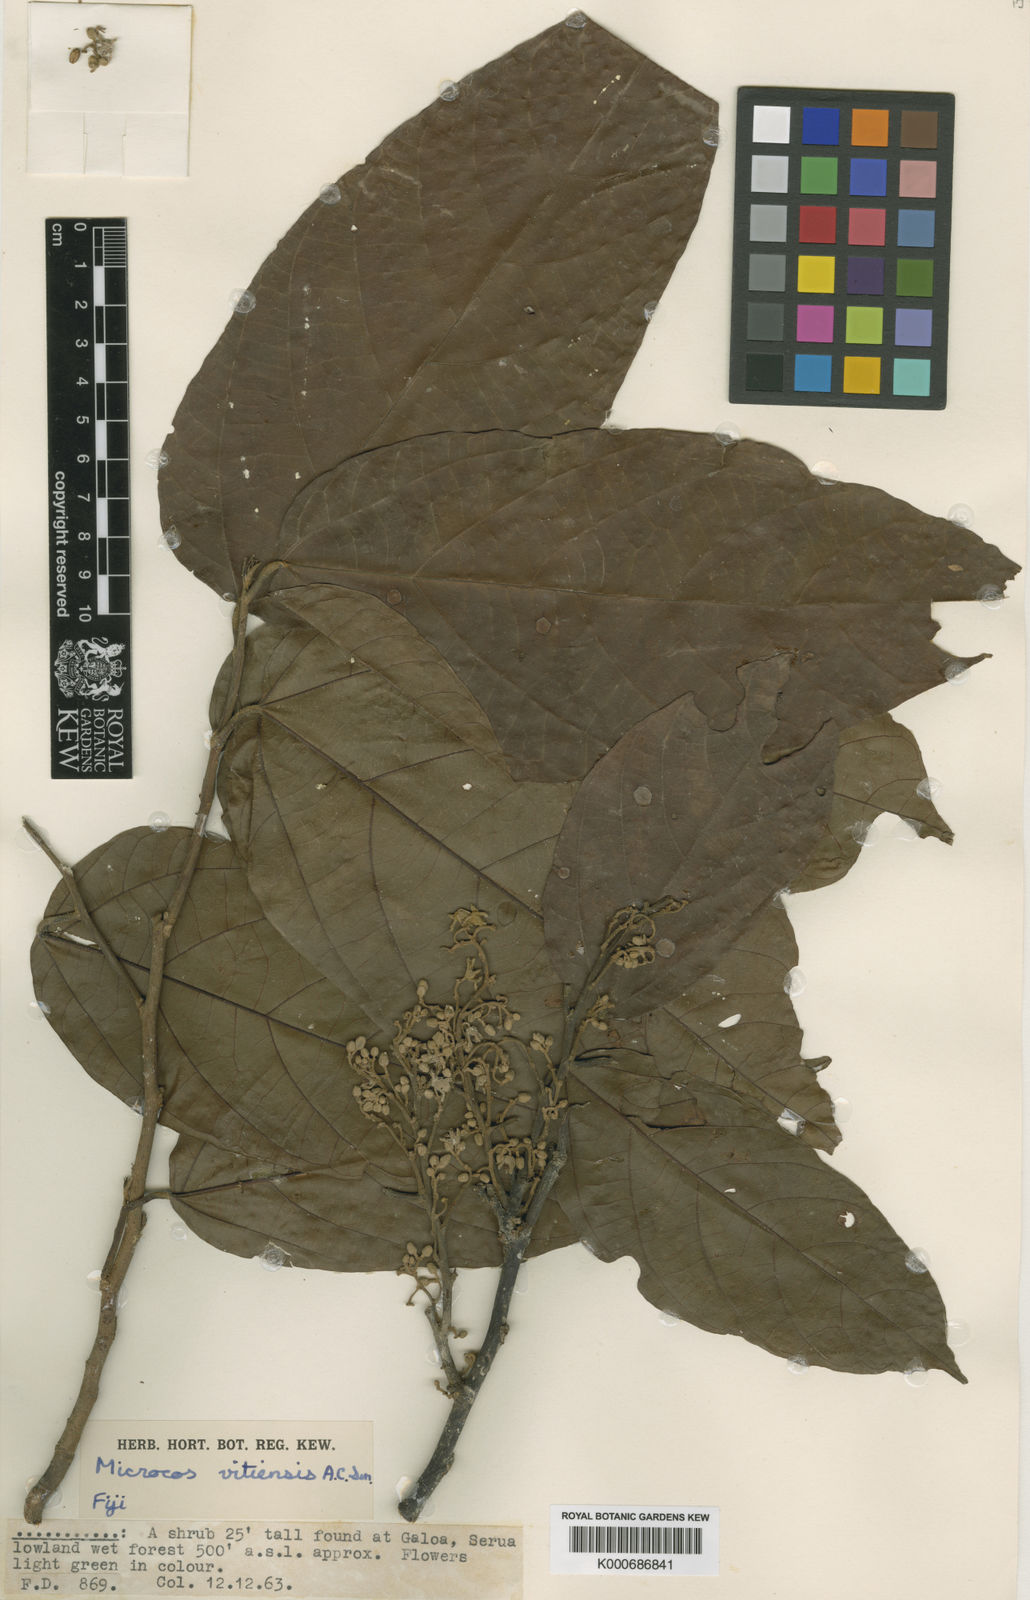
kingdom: Plantae
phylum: Tracheophyta
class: Magnoliopsida
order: Malvales
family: Malvaceae
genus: Microcos
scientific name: Microcos vitiensis
